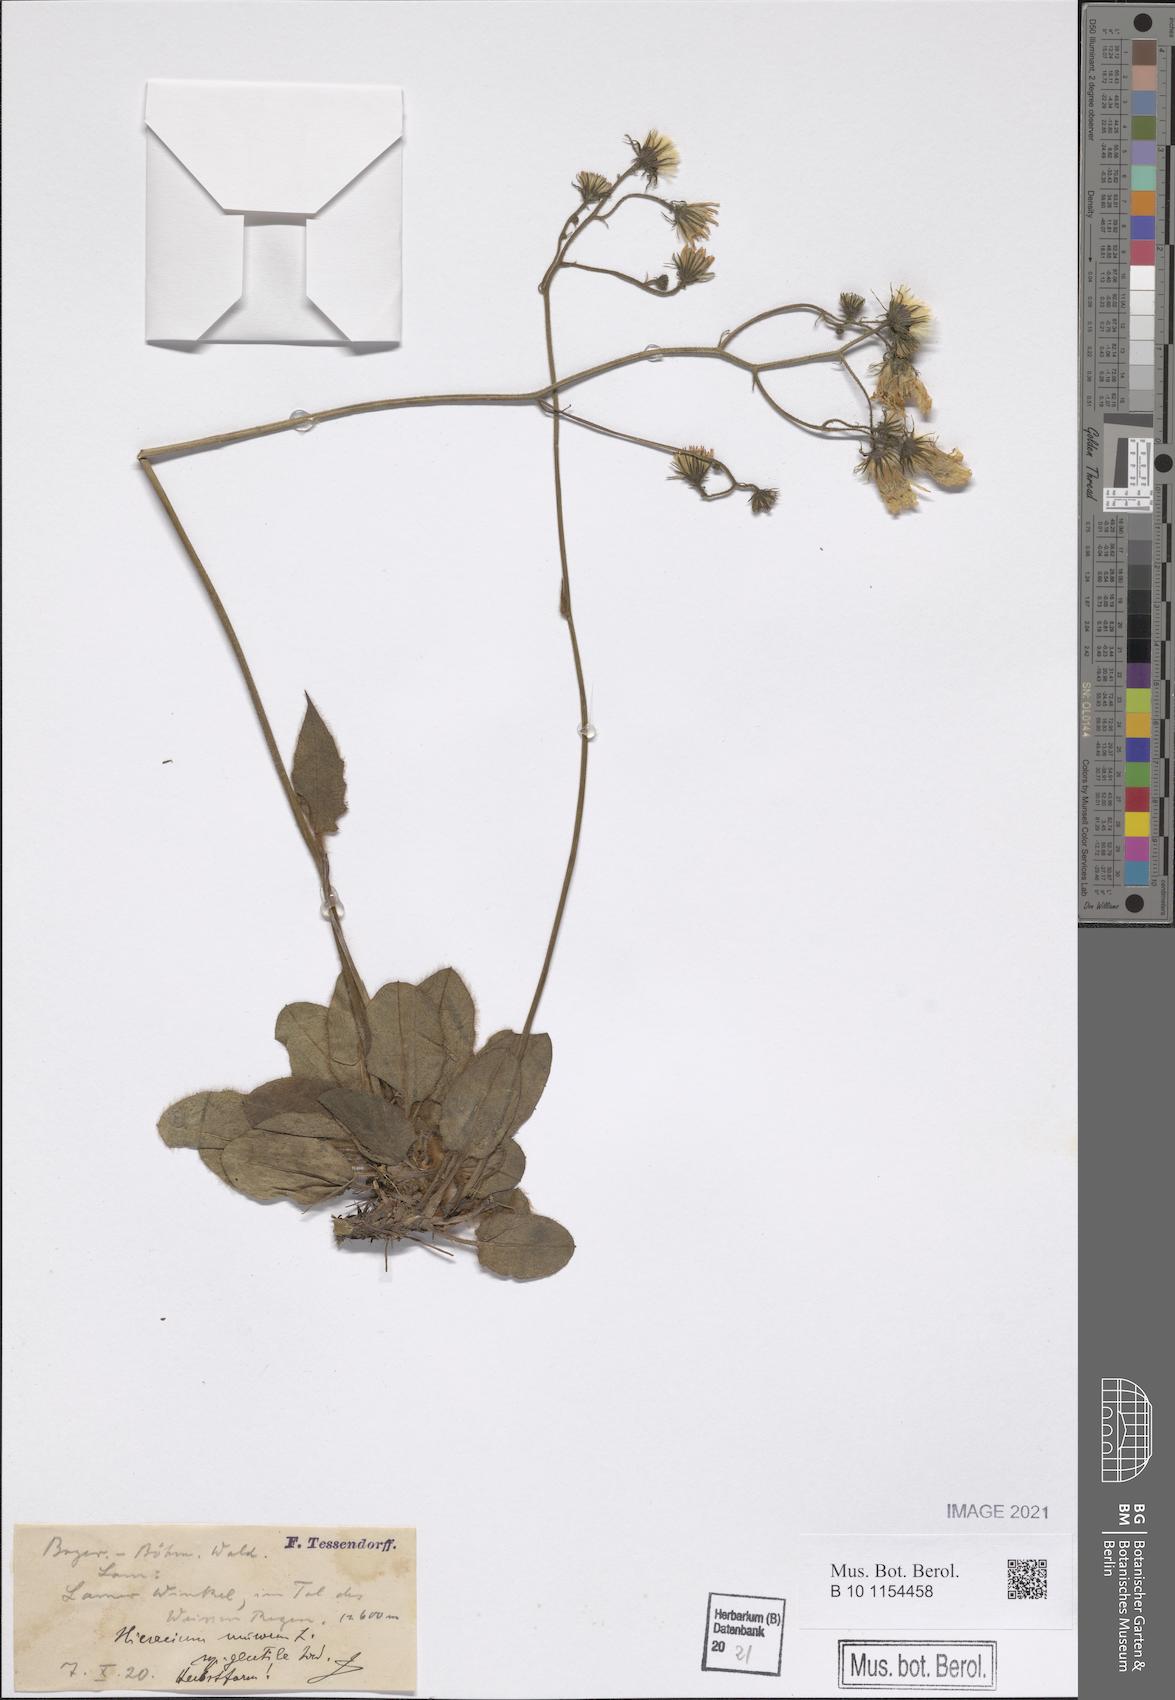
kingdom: Plantae
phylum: Tracheophyta
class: Magnoliopsida
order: Asterales
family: Asteraceae
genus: Hieracium
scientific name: Hieracium murorum
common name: Wall hawkweed
